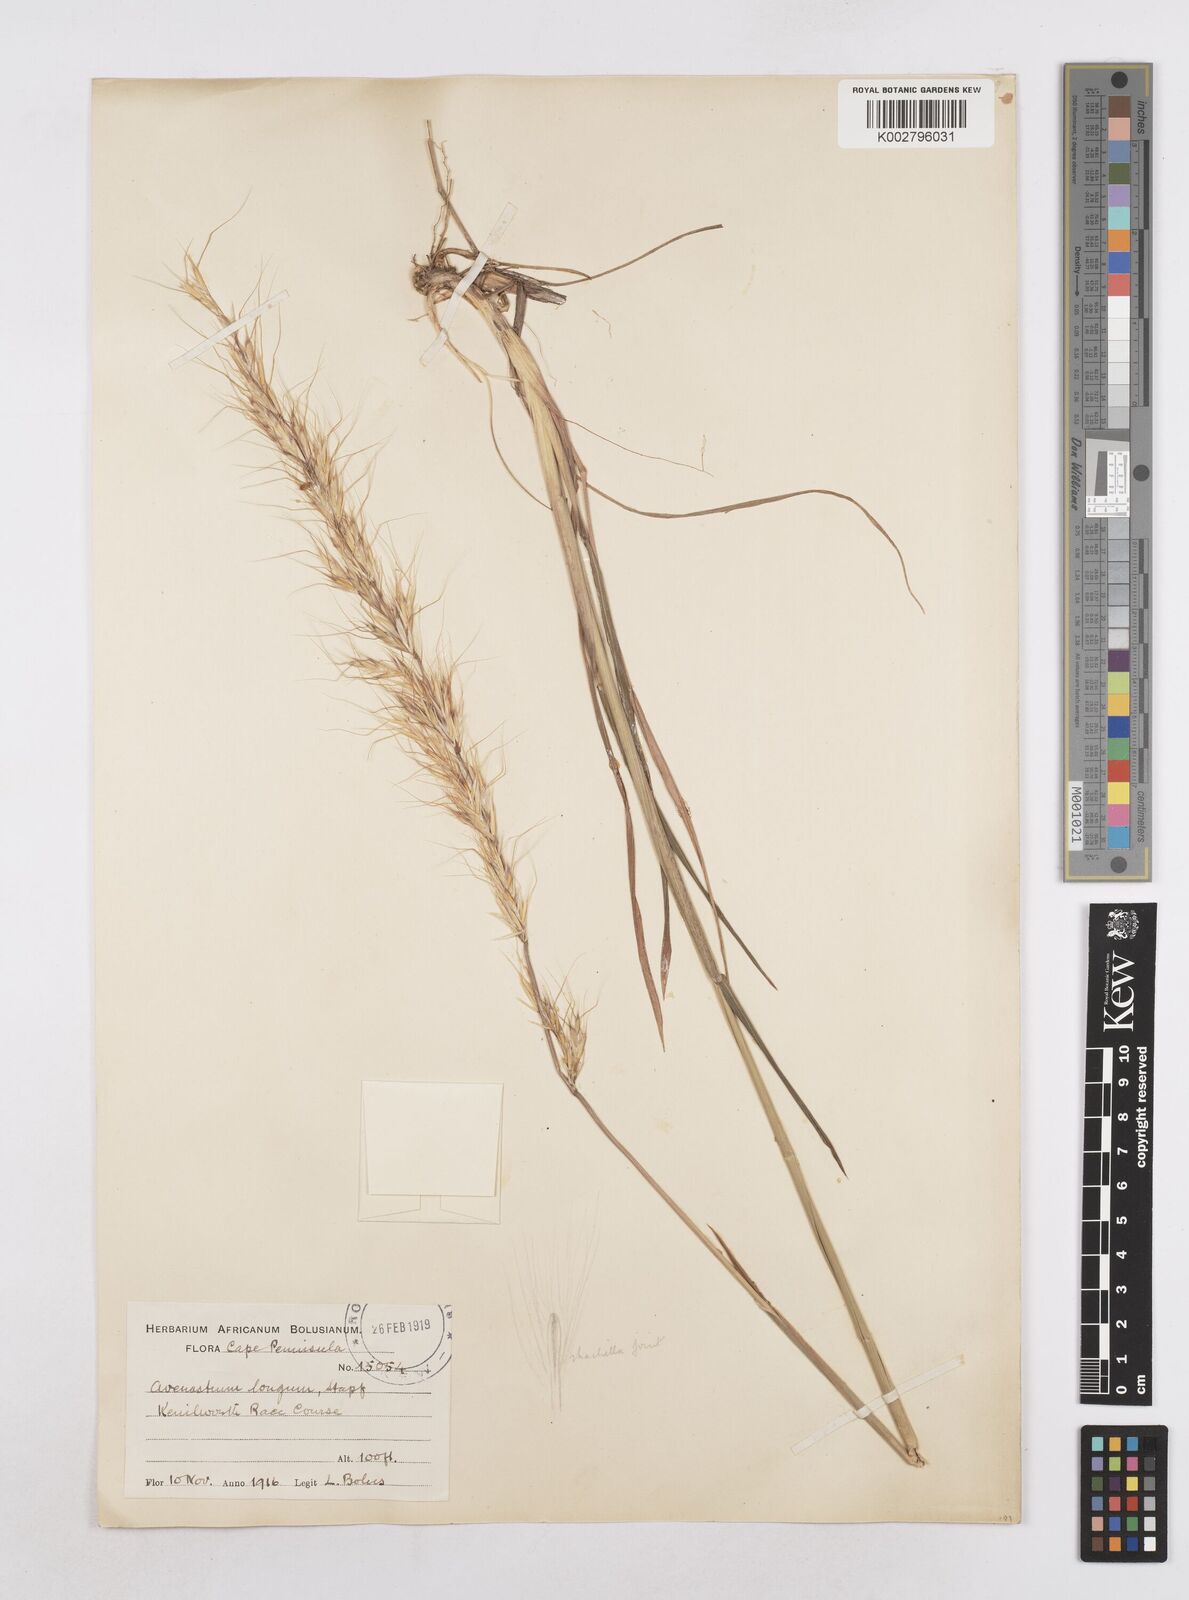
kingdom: Plantae
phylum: Tracheophyta
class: Liliopsida
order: Poales
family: Poaceae
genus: Trisetopsis
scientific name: Trisetopsis longa
